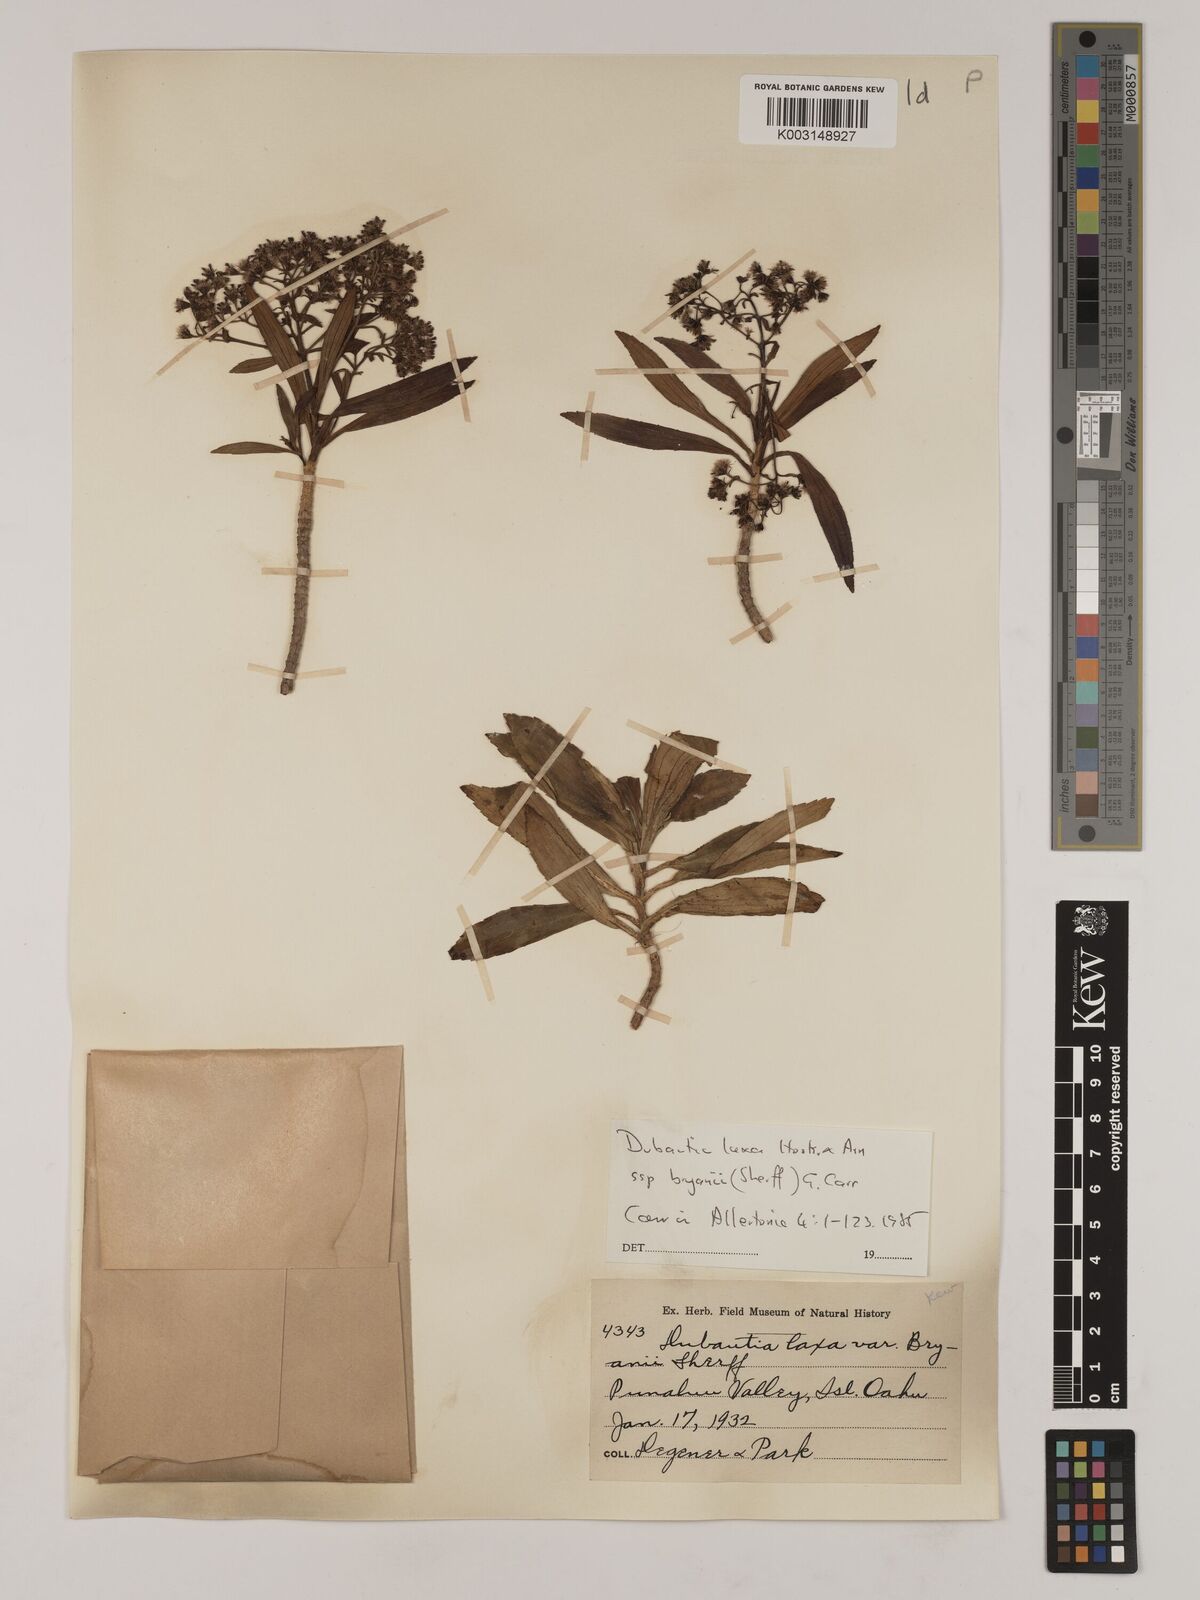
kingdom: Plantae
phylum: Tracheophyta
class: Magnoliopsida
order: Asterales
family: Asteraceae
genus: Dubautia
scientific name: Dubautia laxa
